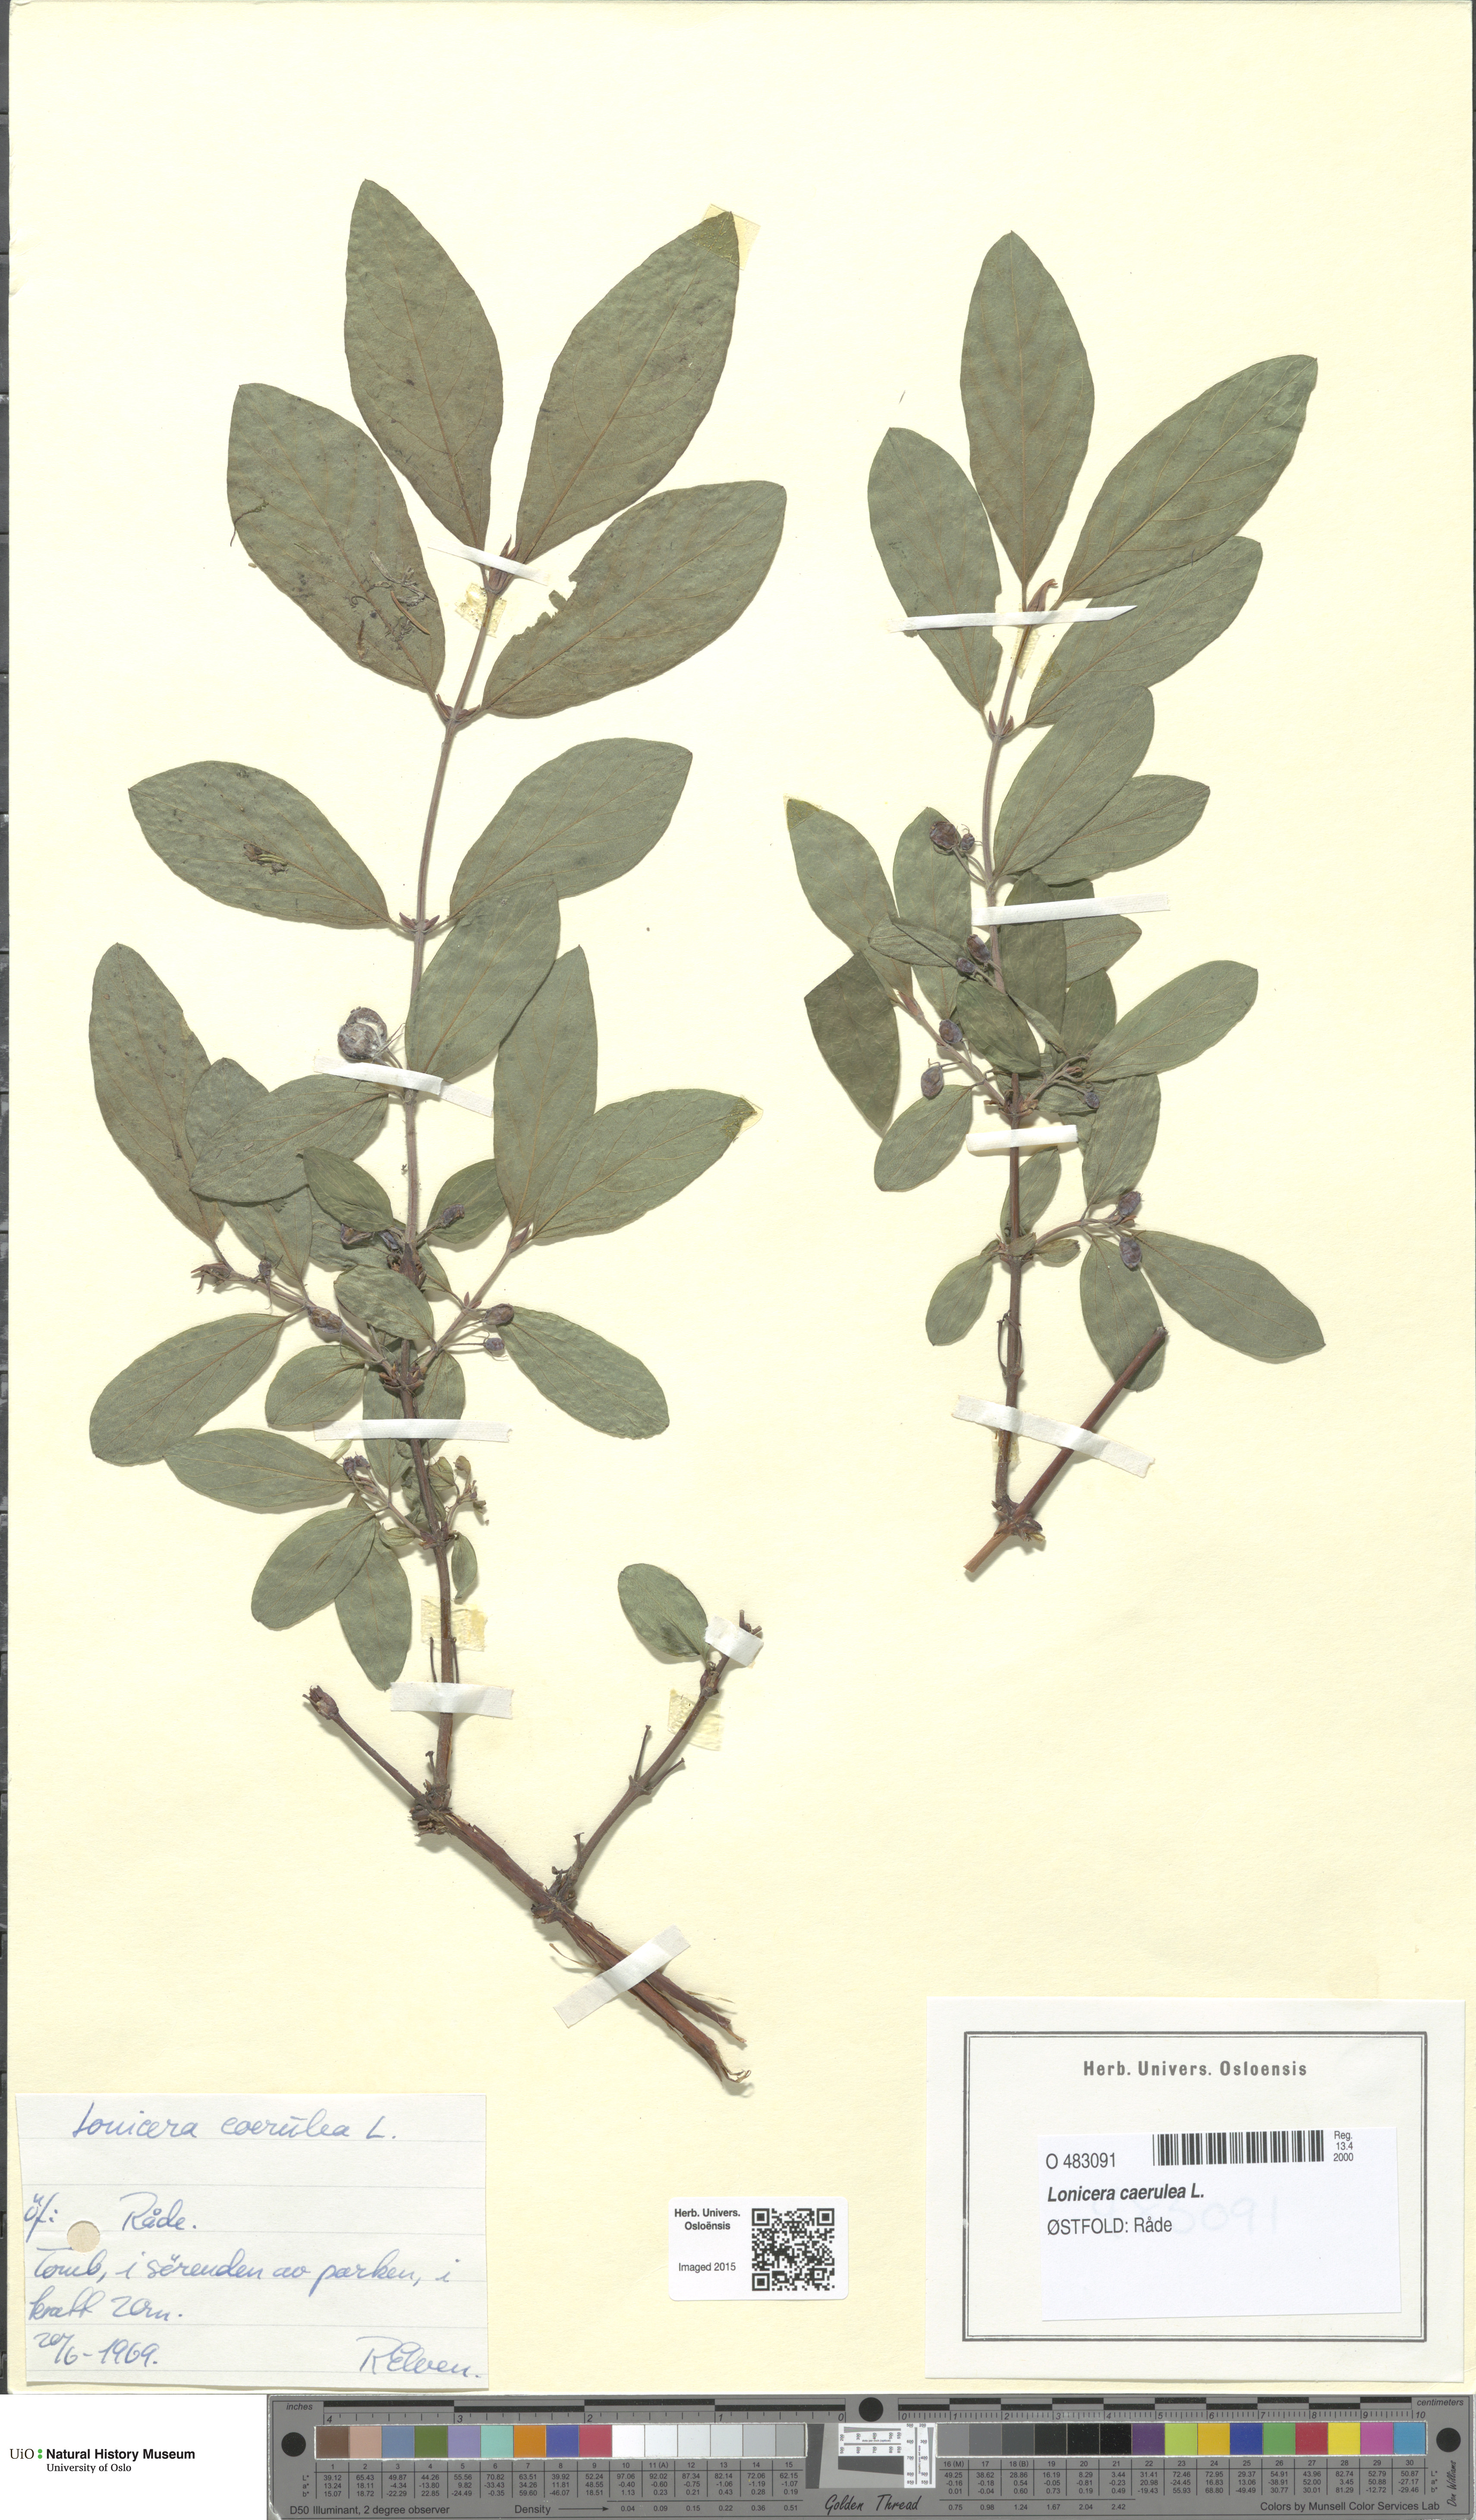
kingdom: Plantae
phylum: Tracheophyta
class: Magnoliopsida
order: Dipsacales
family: Caprifoliaceae
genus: Lonicera
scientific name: Lonicera caerulea
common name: Blue honeysuckle
